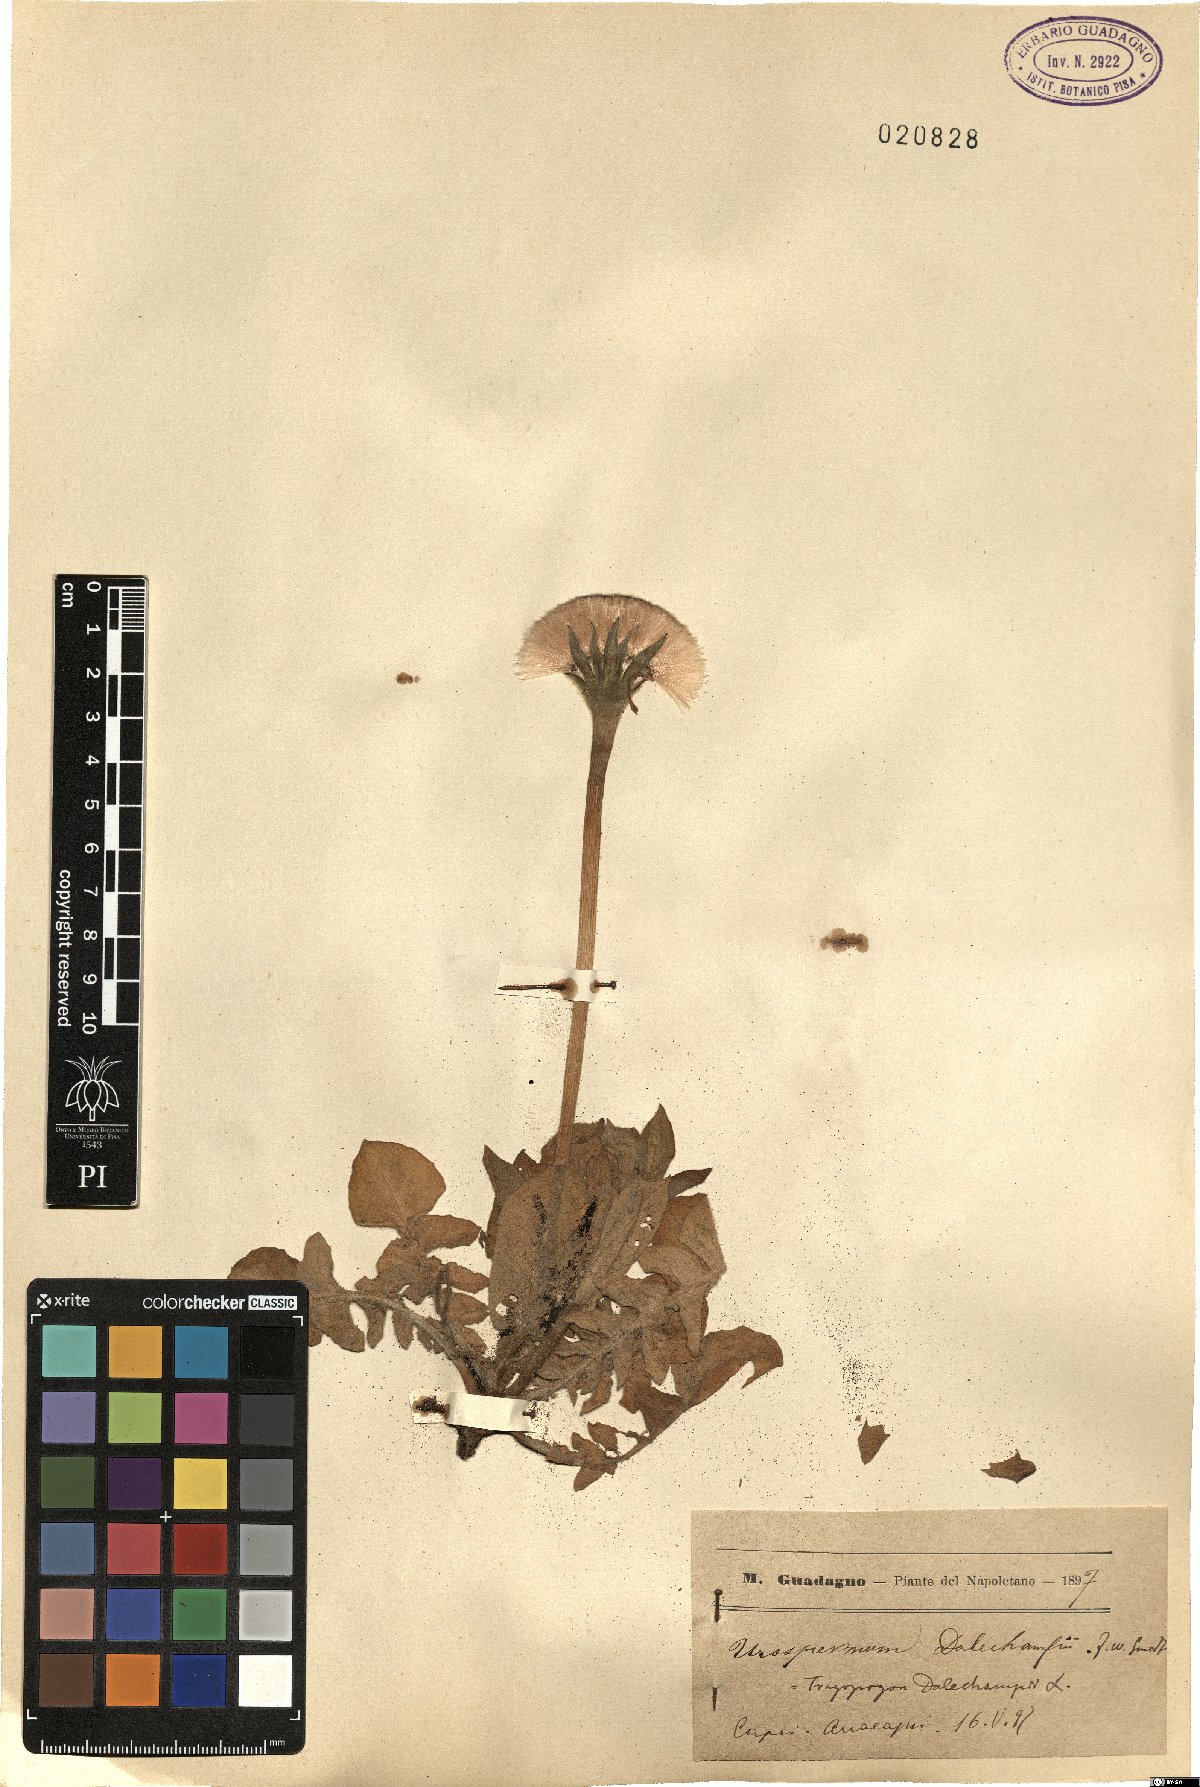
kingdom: Plantae
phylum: Tracheophyta
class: Magnoliopsida
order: Asterales
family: Asteraceae
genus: Urospermum
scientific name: Urospermum dalechampii
